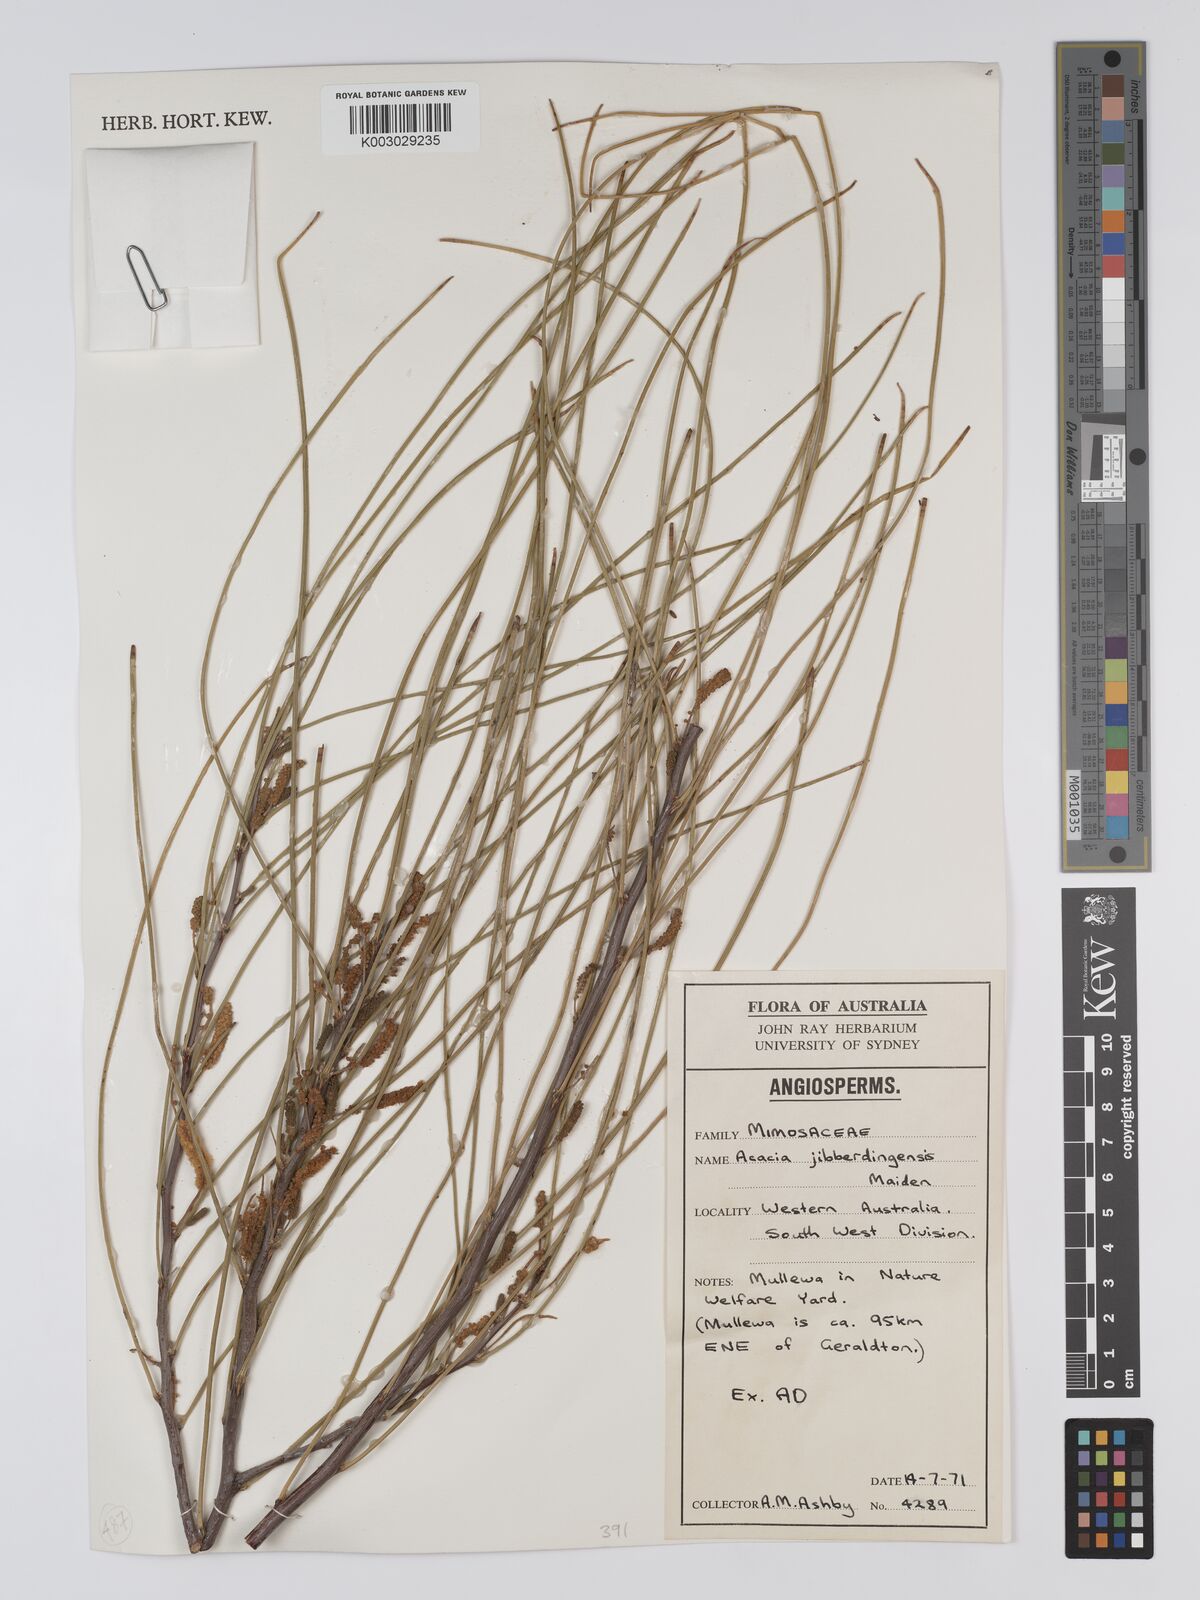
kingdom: Plantae
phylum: Tracheophyta
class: Magnoliopsida
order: Fabales
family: Fabaceae
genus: Acacia
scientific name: Acacia jibberdingensis
